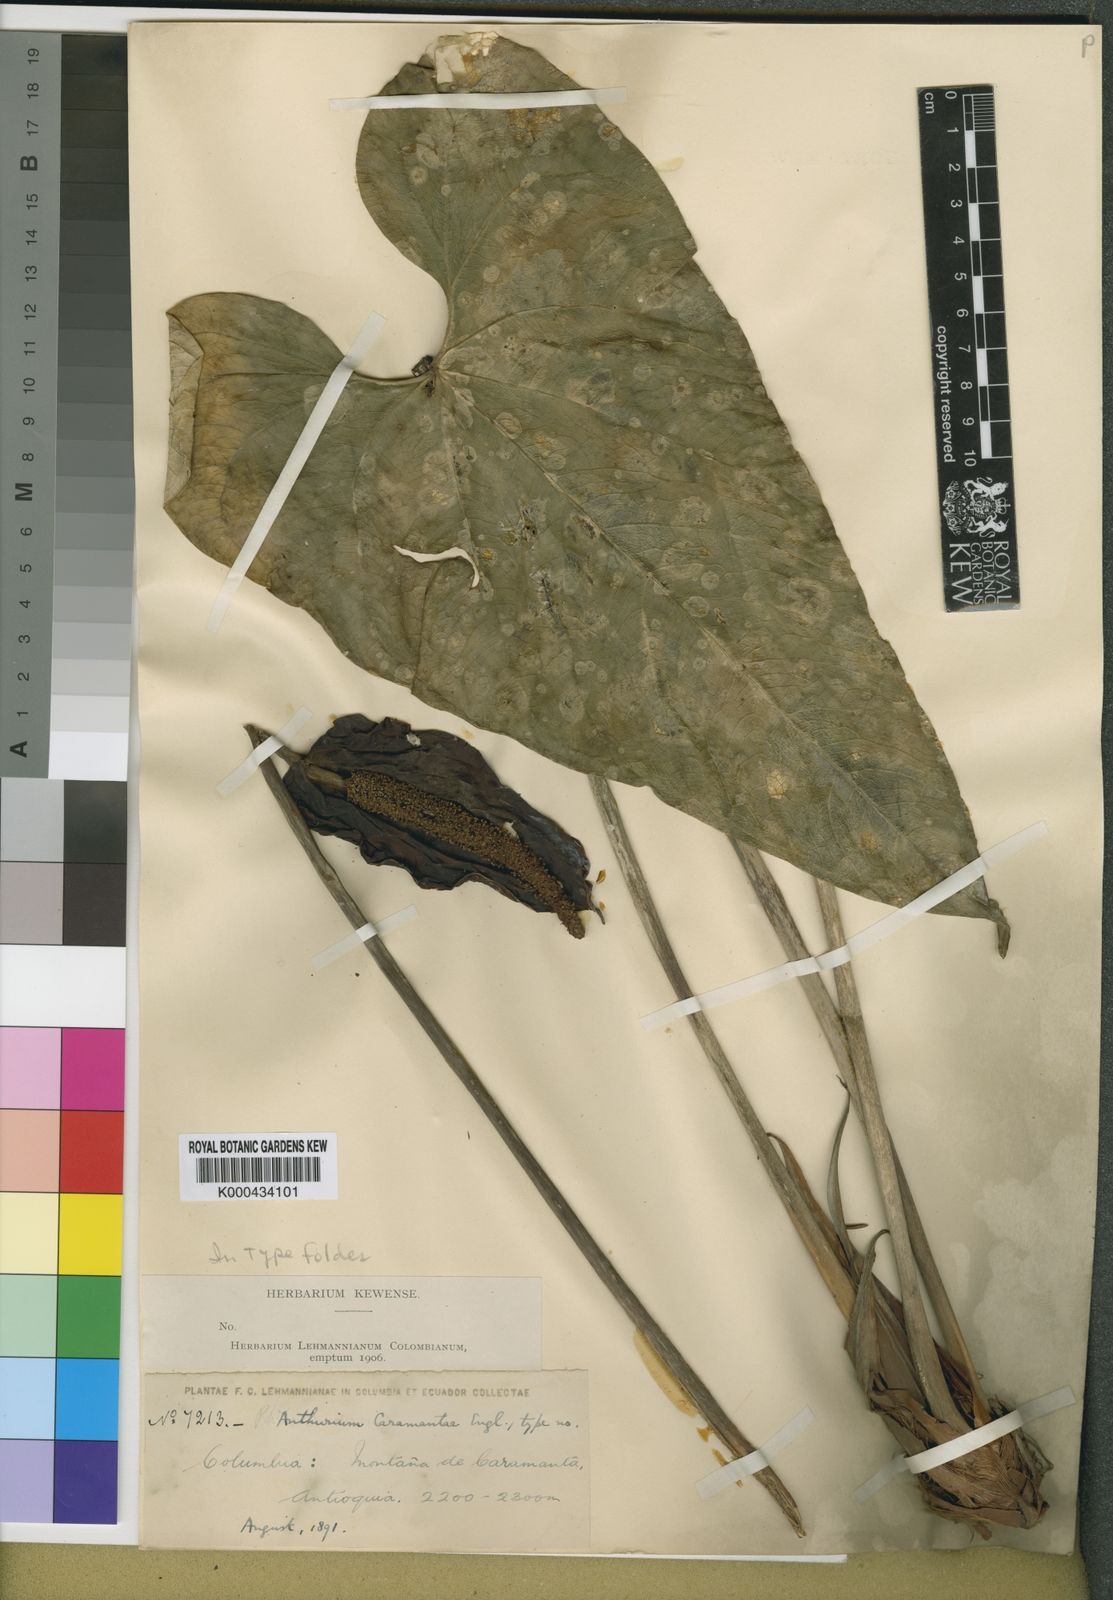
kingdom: Plantae
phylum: Tracheophyta
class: Liliopsida
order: Alismatales
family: Araceae
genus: Anthurium
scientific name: Anthurium caramantae
